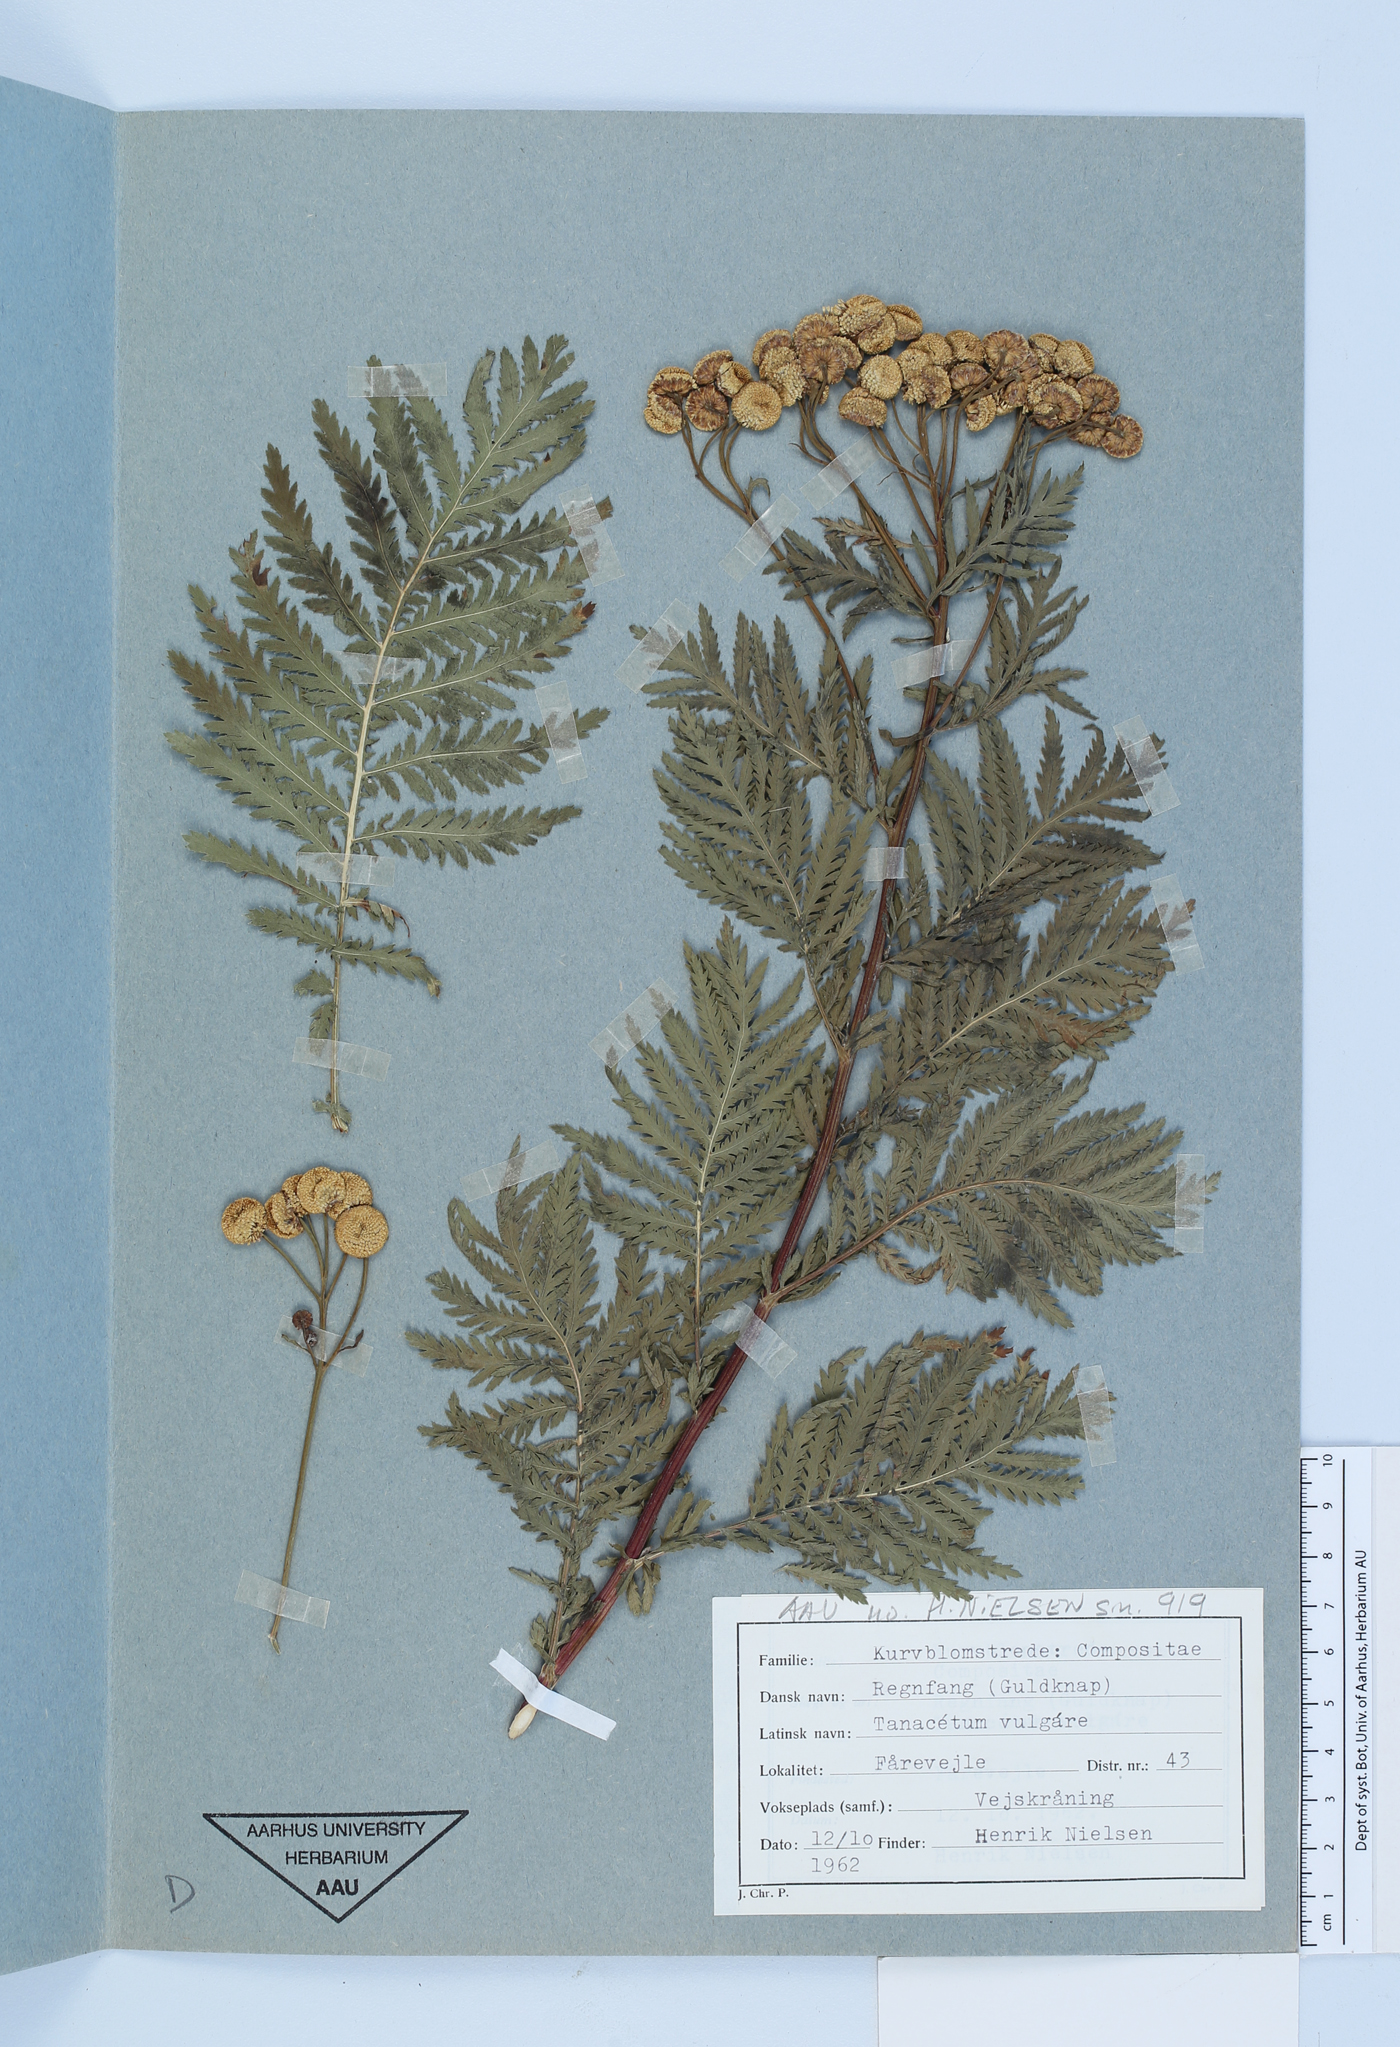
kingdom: Plantae
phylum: Tracheophyta
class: Magnoliopsida
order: Asterales
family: Asteraceae
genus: Tanacetum
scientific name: Tanacetum vulgare
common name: Common tansy
